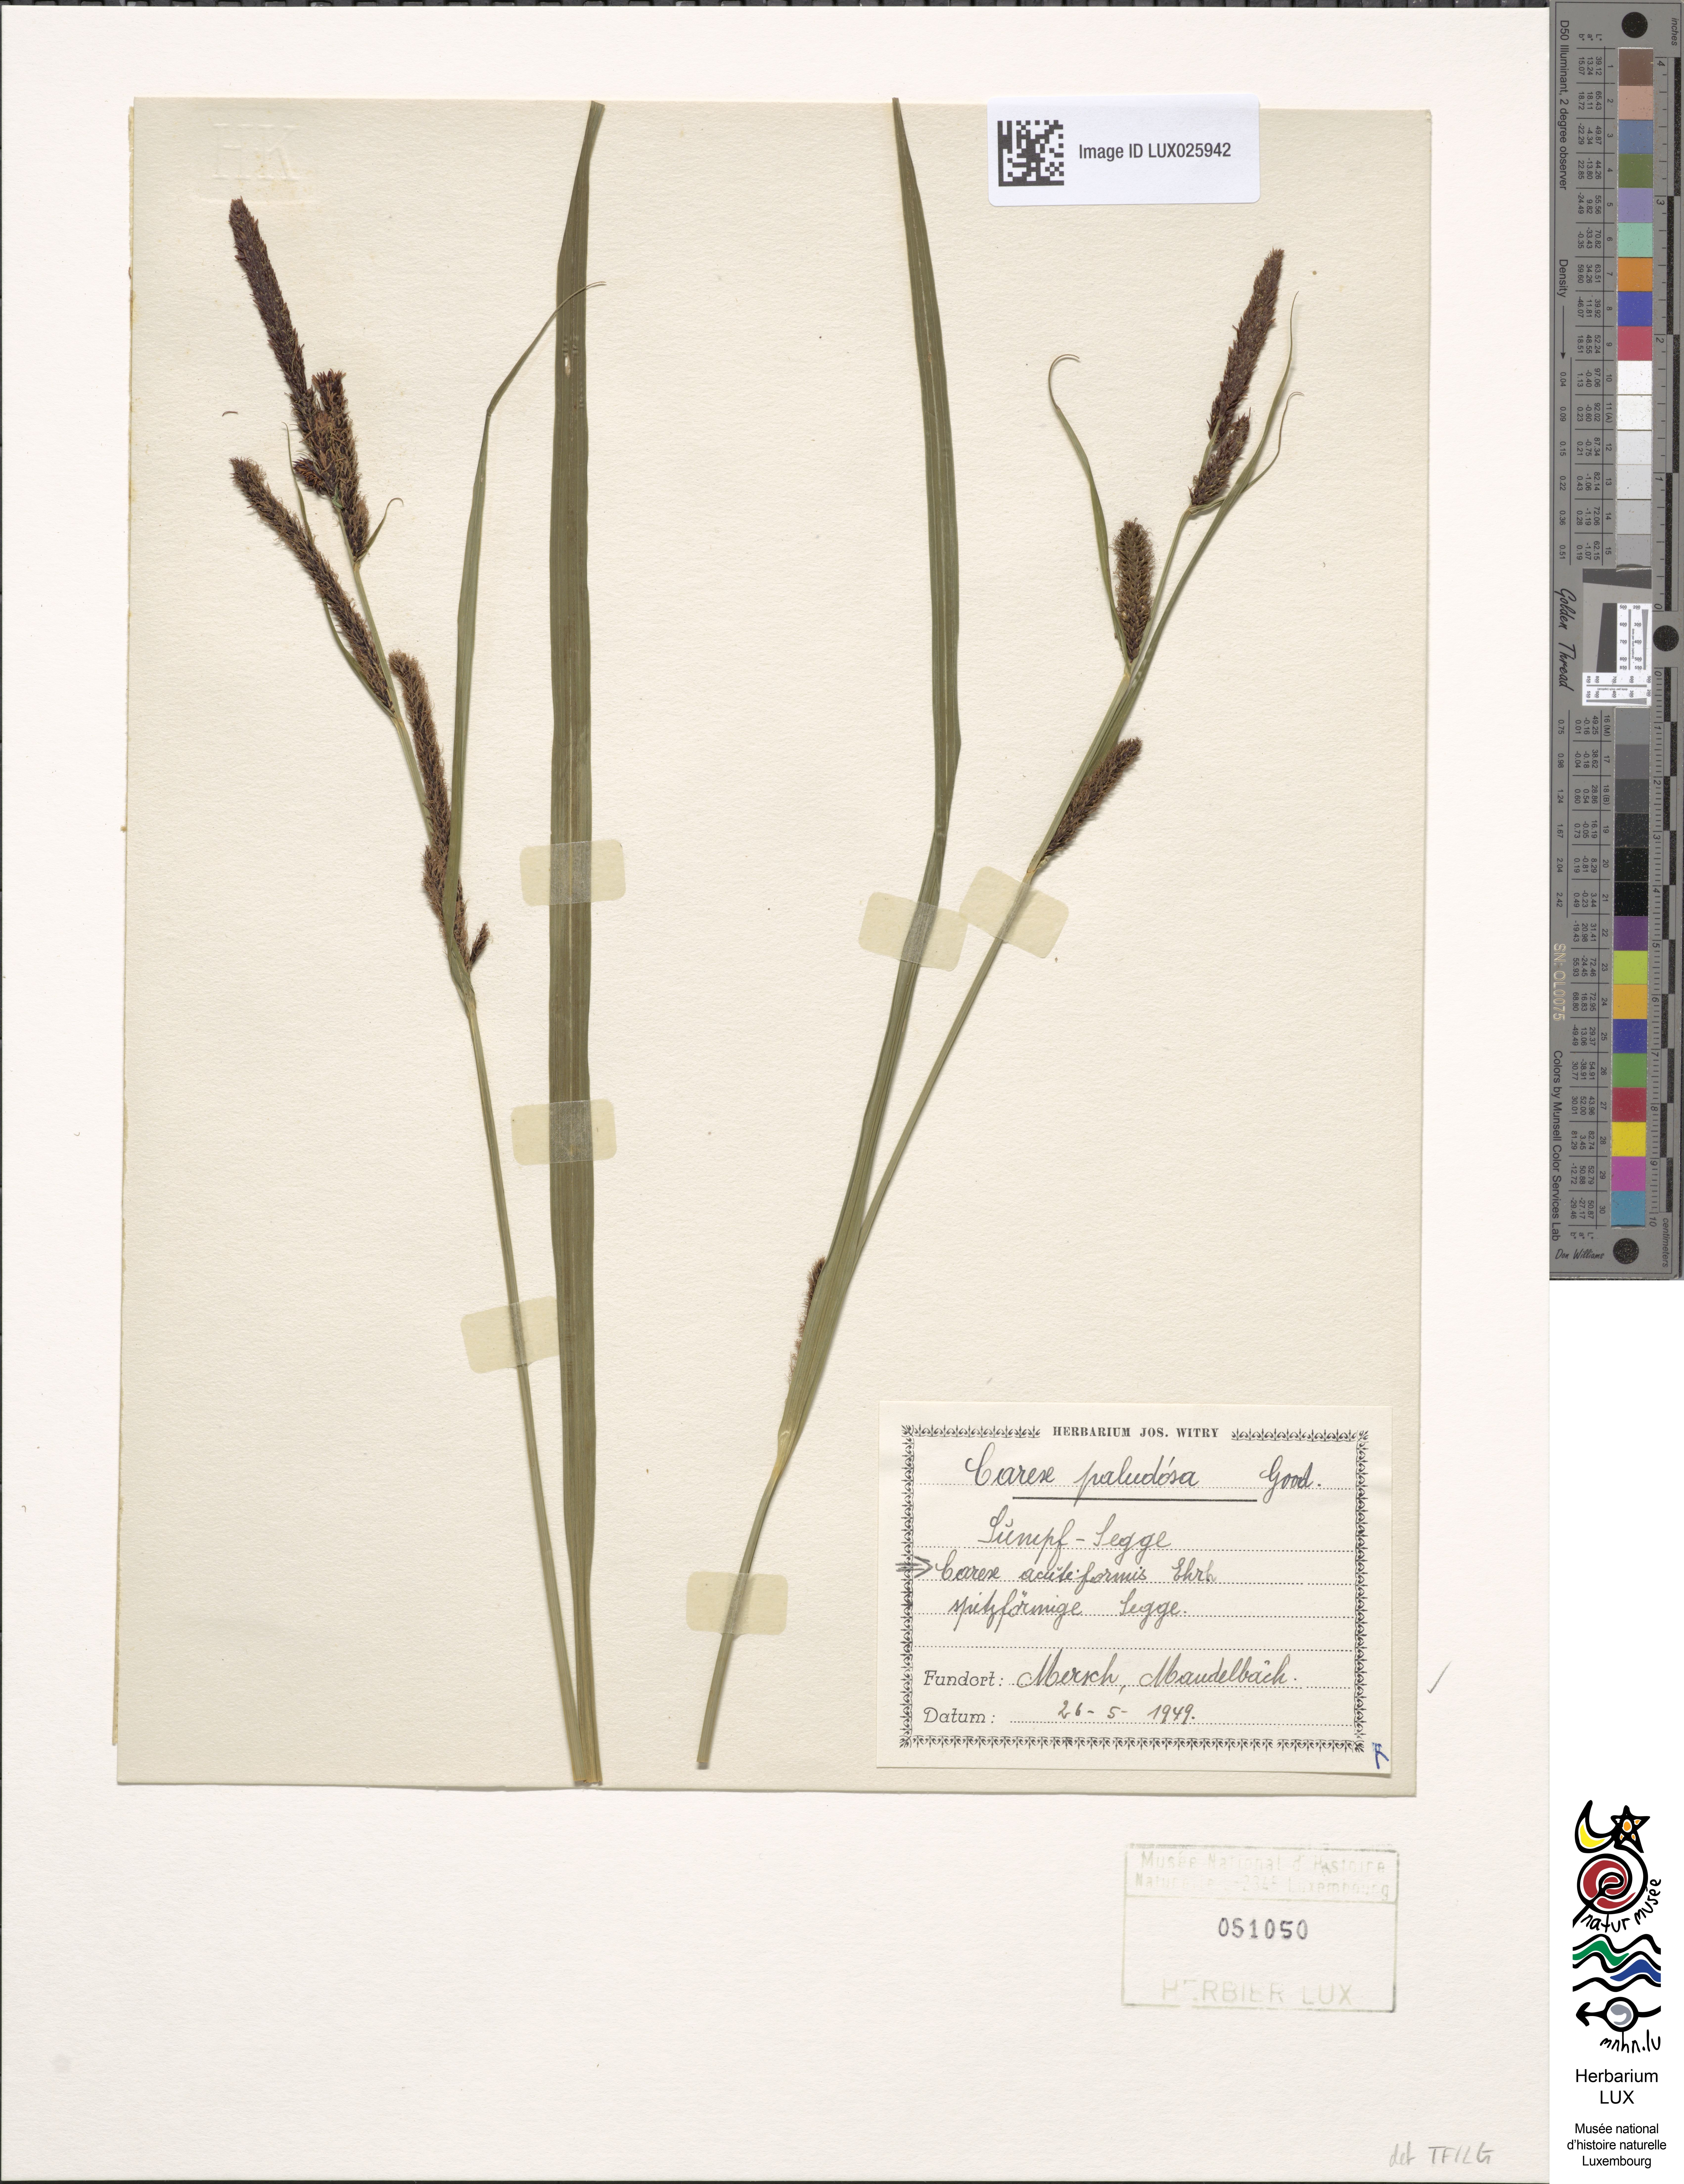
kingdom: Plantae
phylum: Tracheophyta
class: Liliopsida
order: Poales
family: Cyperaceae
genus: Carex
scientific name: Carex acutiformis
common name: Lesser pond-sedge
